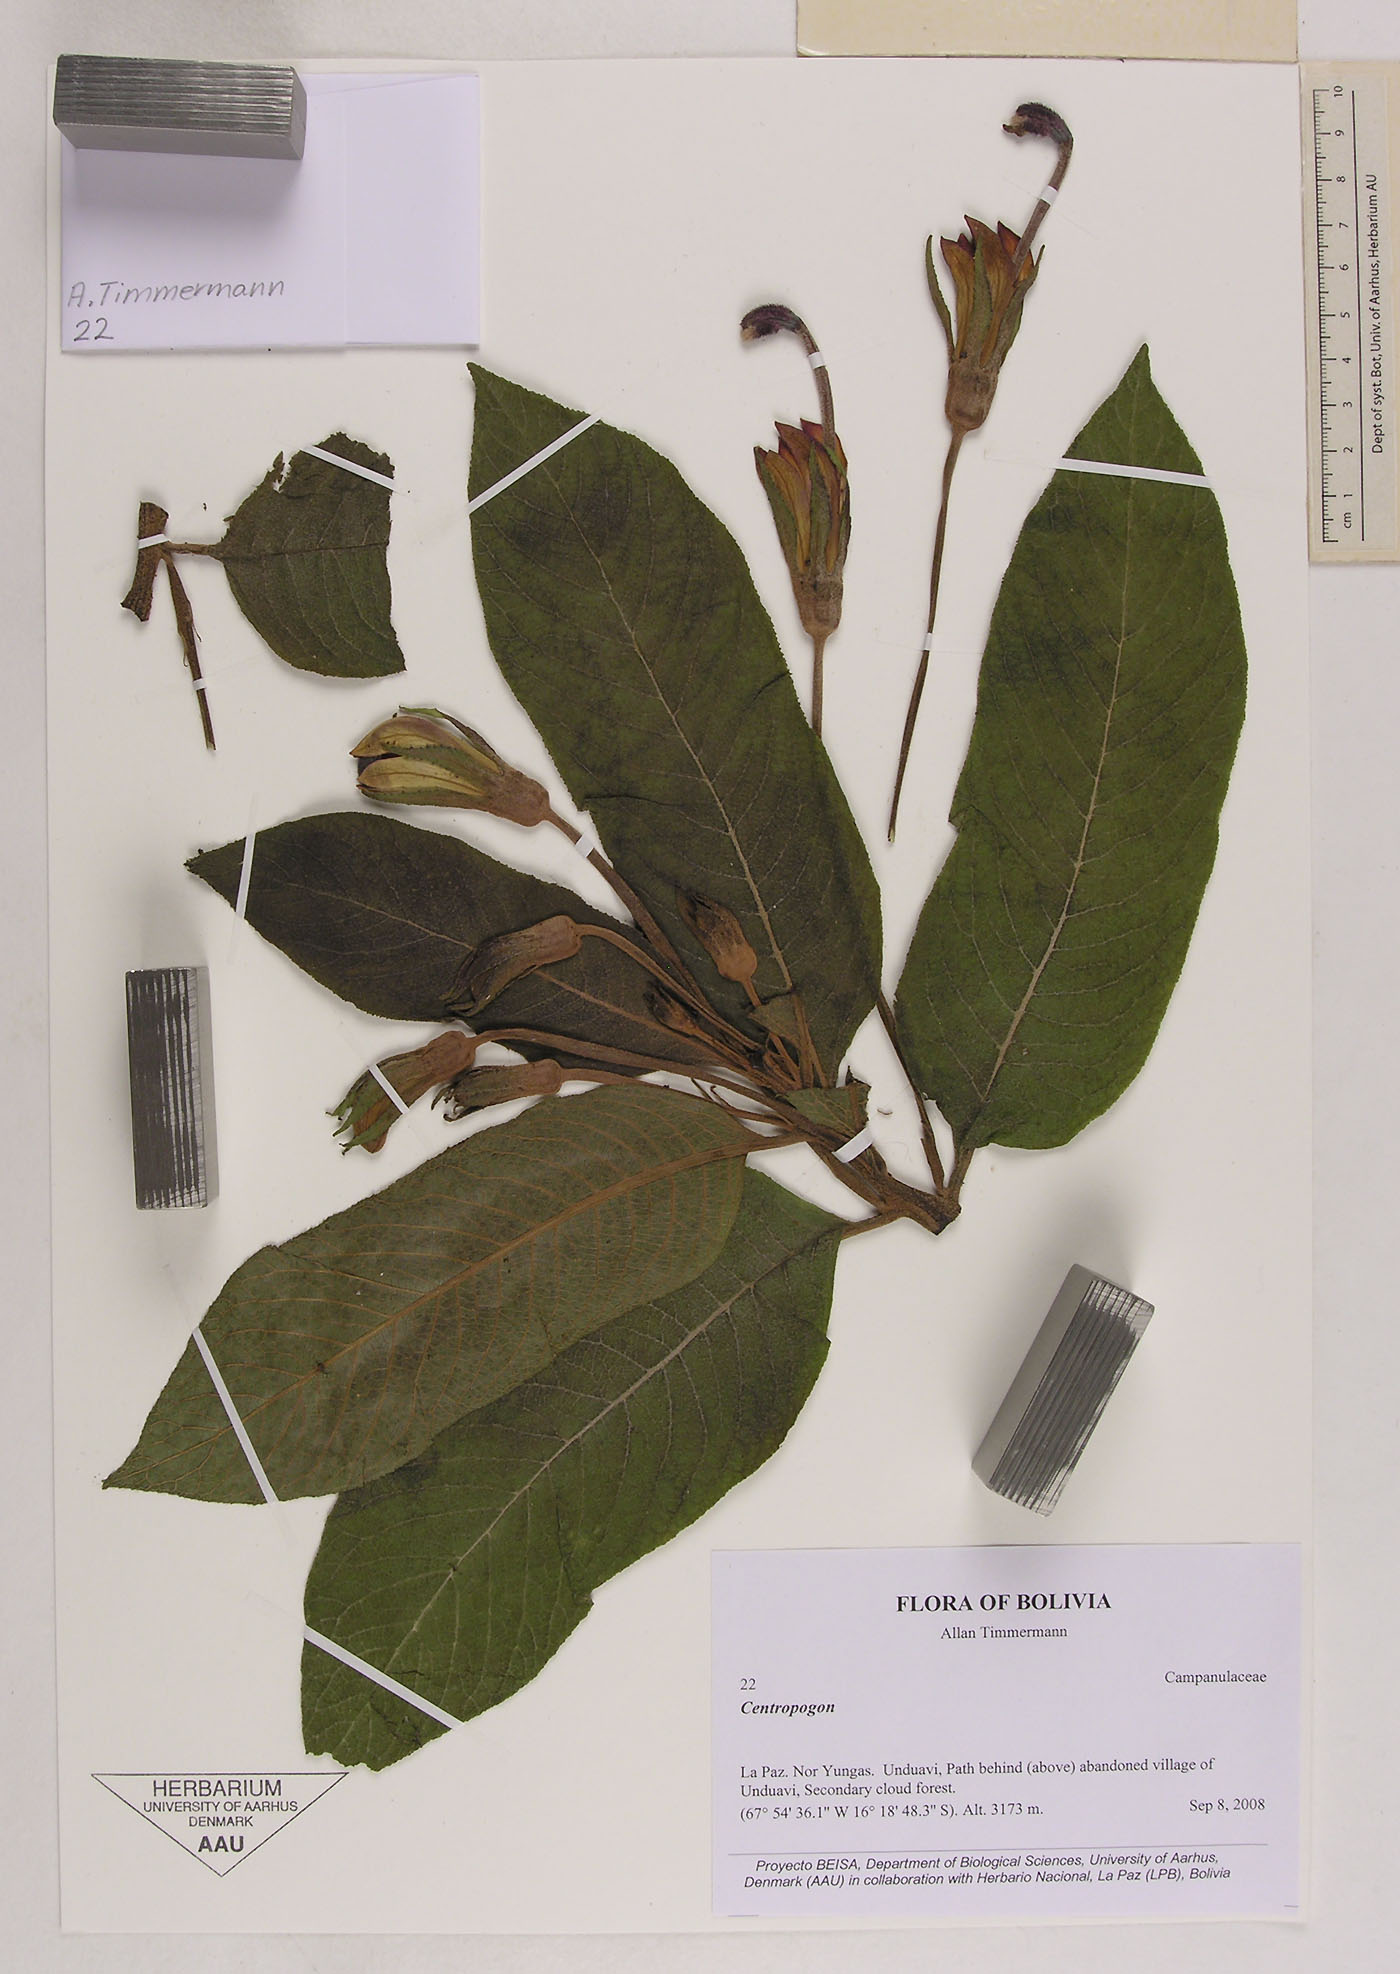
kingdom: Plantae
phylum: Tracheophyta
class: Magnoliopsida
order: Asterales
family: Campanulaceae
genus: Centropogon
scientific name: Centropogon brittonianus
